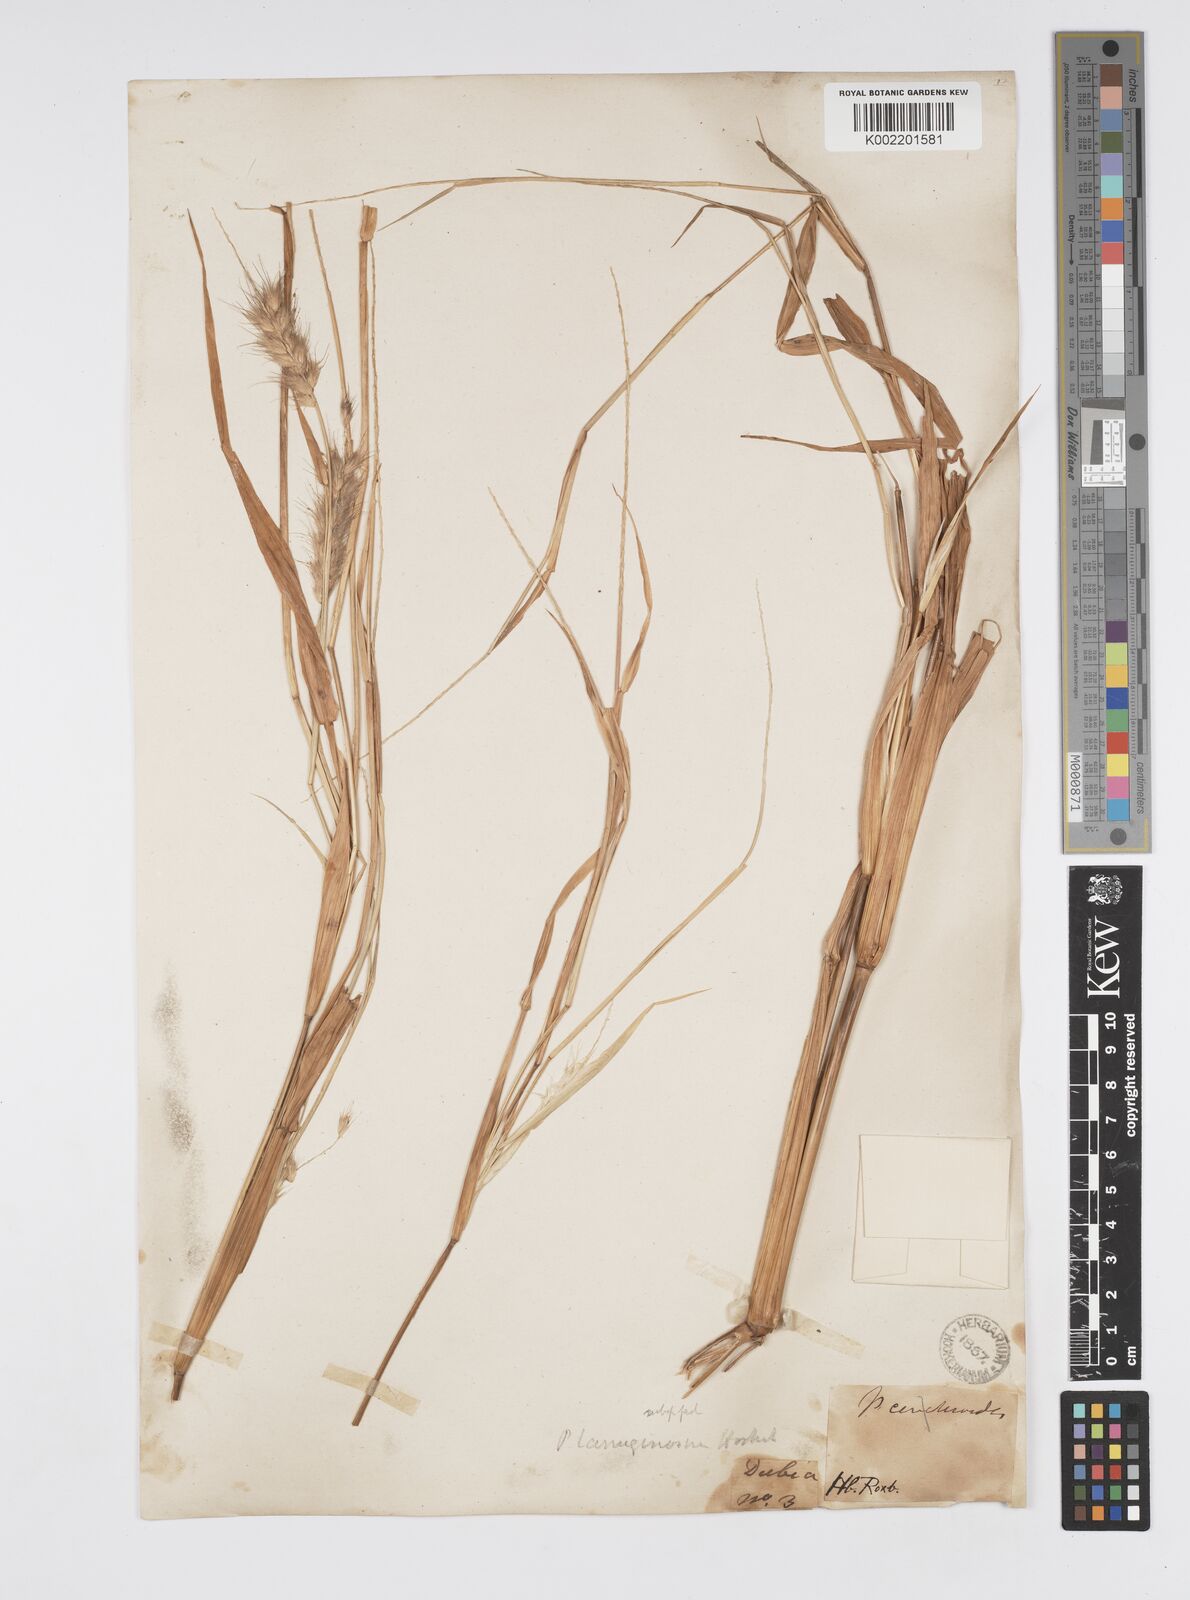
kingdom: Plantae
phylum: Tracheophyta
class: Liliopsida
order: Poales
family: Poaceae
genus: Cenchrus
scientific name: Cenchrus pedicellatus
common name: Hairy fountain grass
